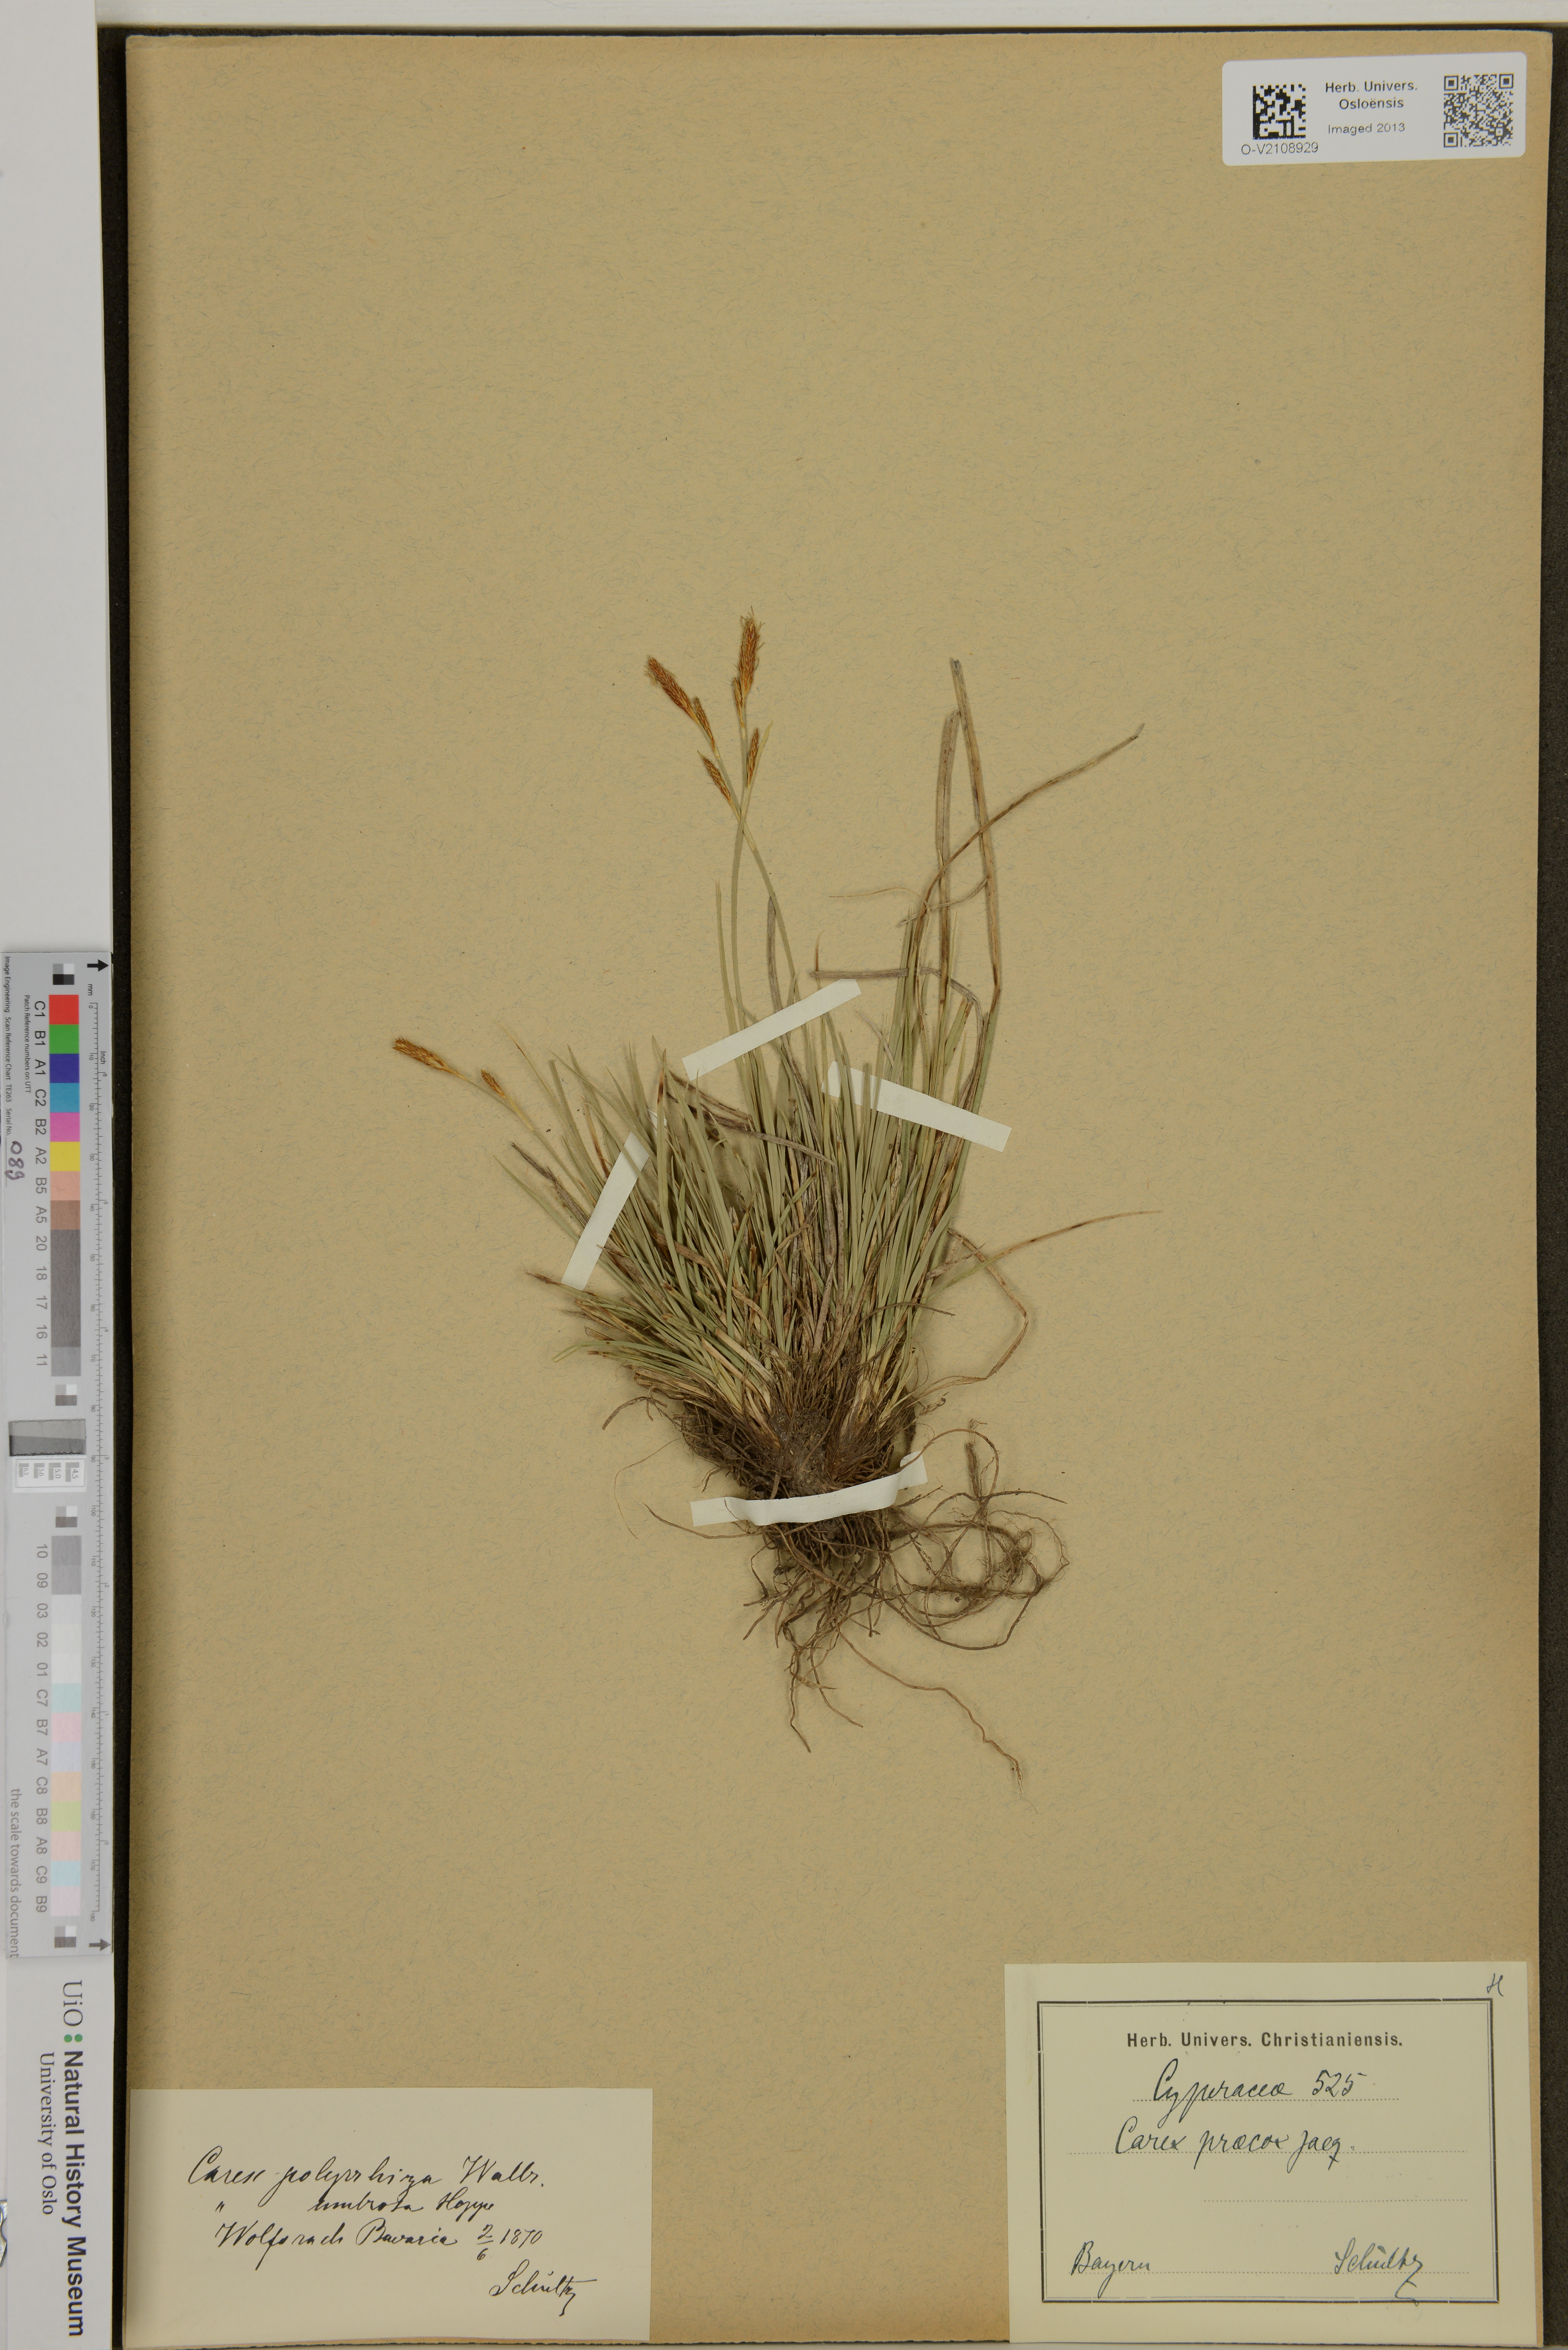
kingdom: Plantae
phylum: Tracheophyta
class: Liliopsida
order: Poales
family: Cyperaceae
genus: Carex
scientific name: Carex praecox
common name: Early sedge
